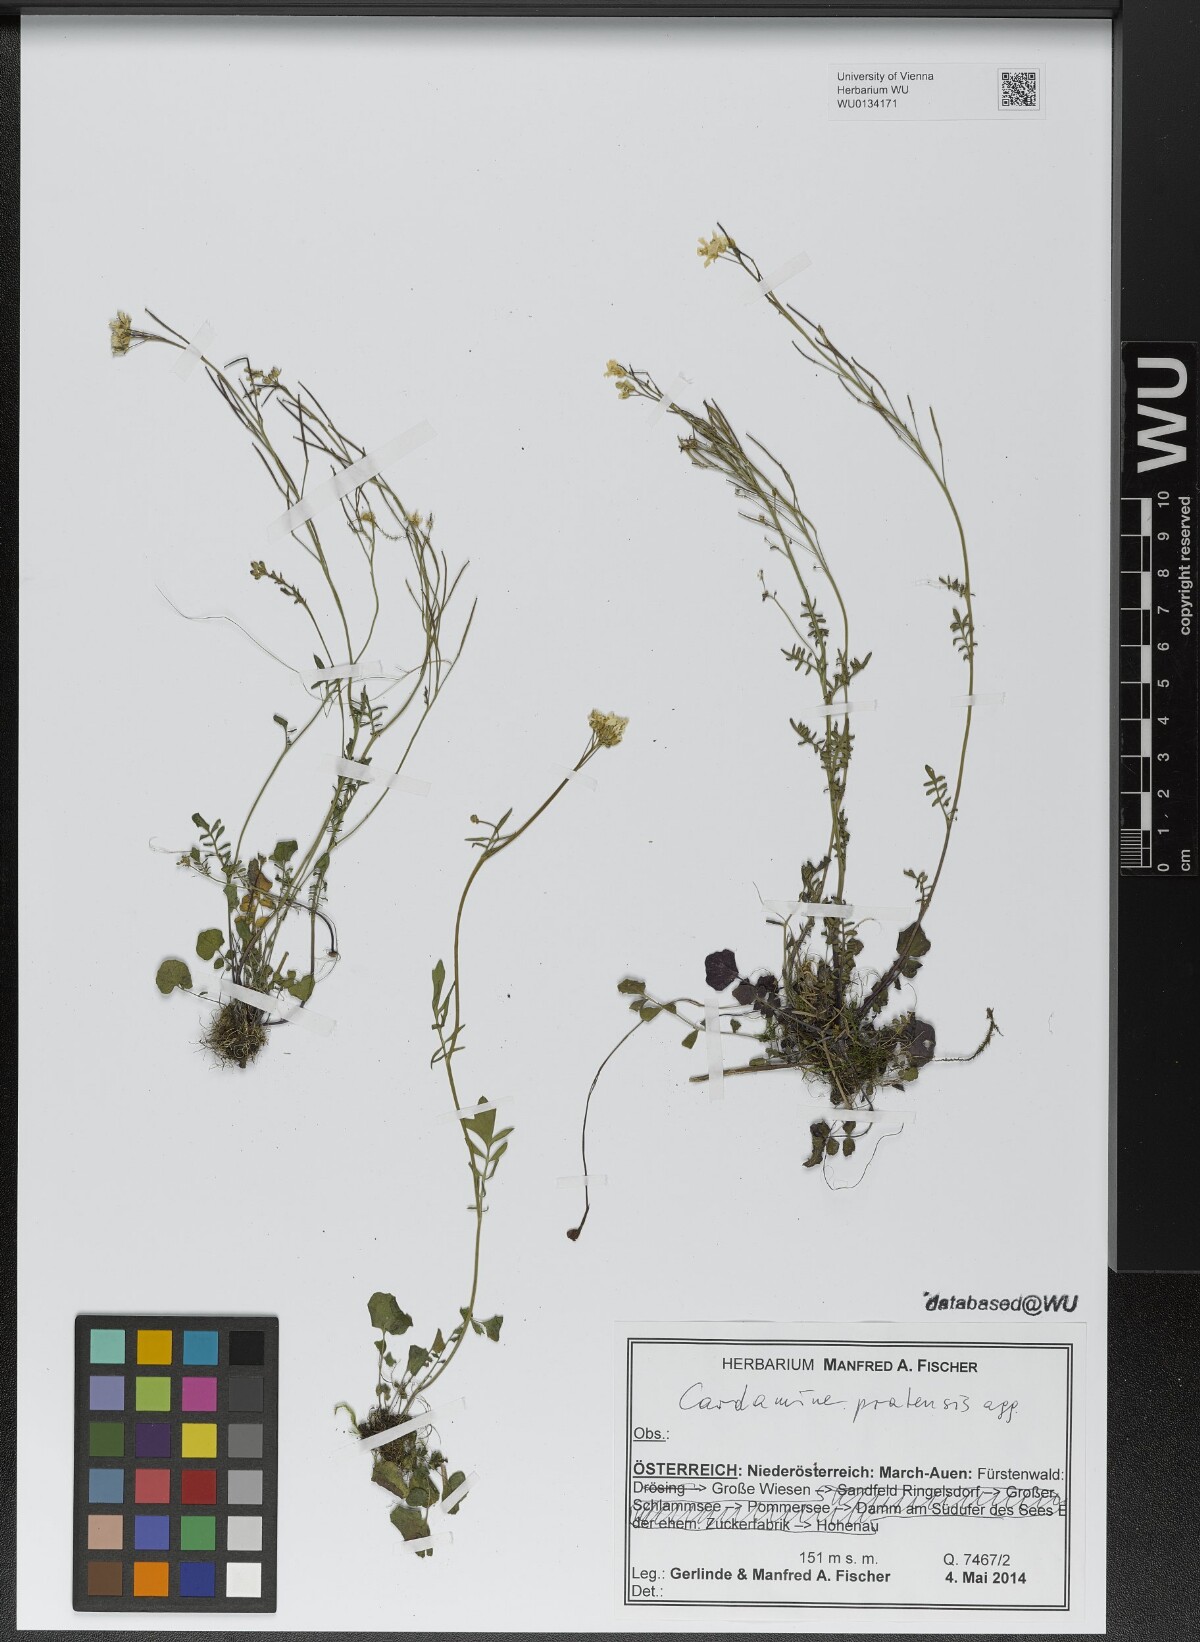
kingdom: Plantae
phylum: Tracheophyta
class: Magnoliopsida
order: Brassicales
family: Brassicaceae
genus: Cardamine
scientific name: Cardamine pratensis
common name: Cuckoo flower
